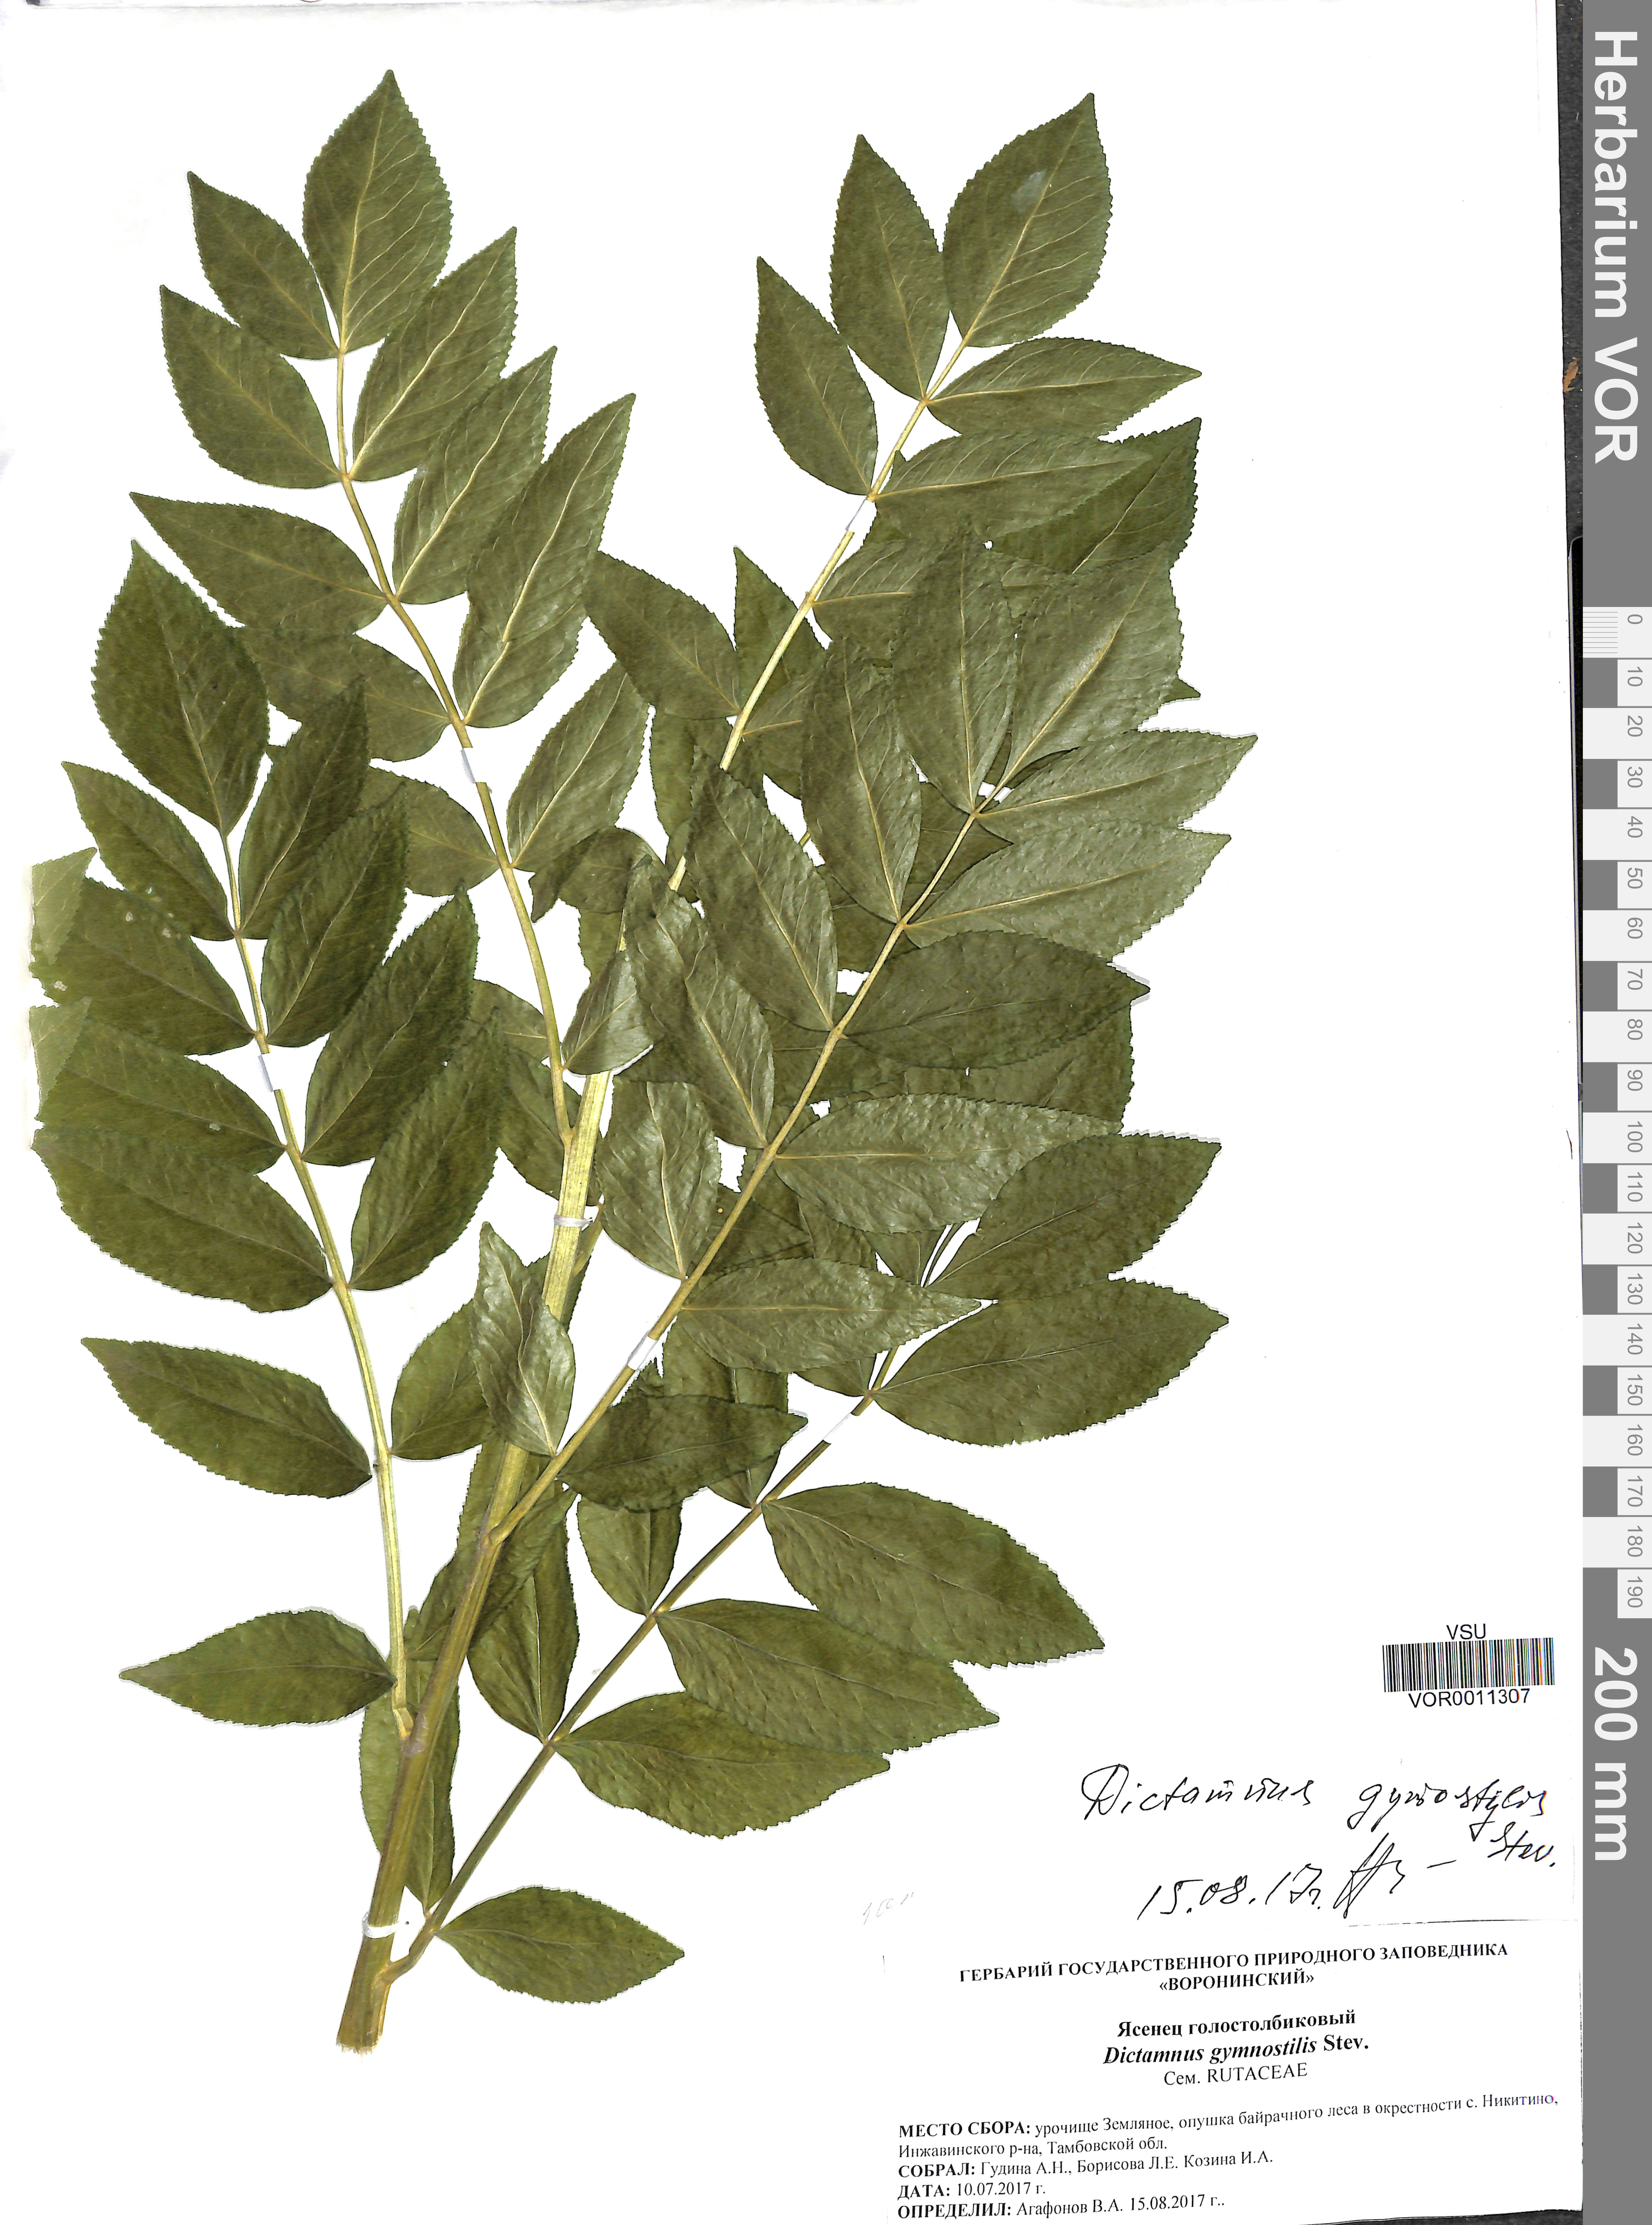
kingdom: Plantae
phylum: Tracheophyta
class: Magnoliopsida
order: Sapindales
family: Rutaceae
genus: Dictamnus
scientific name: Dictamnus albus
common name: Gasplant
